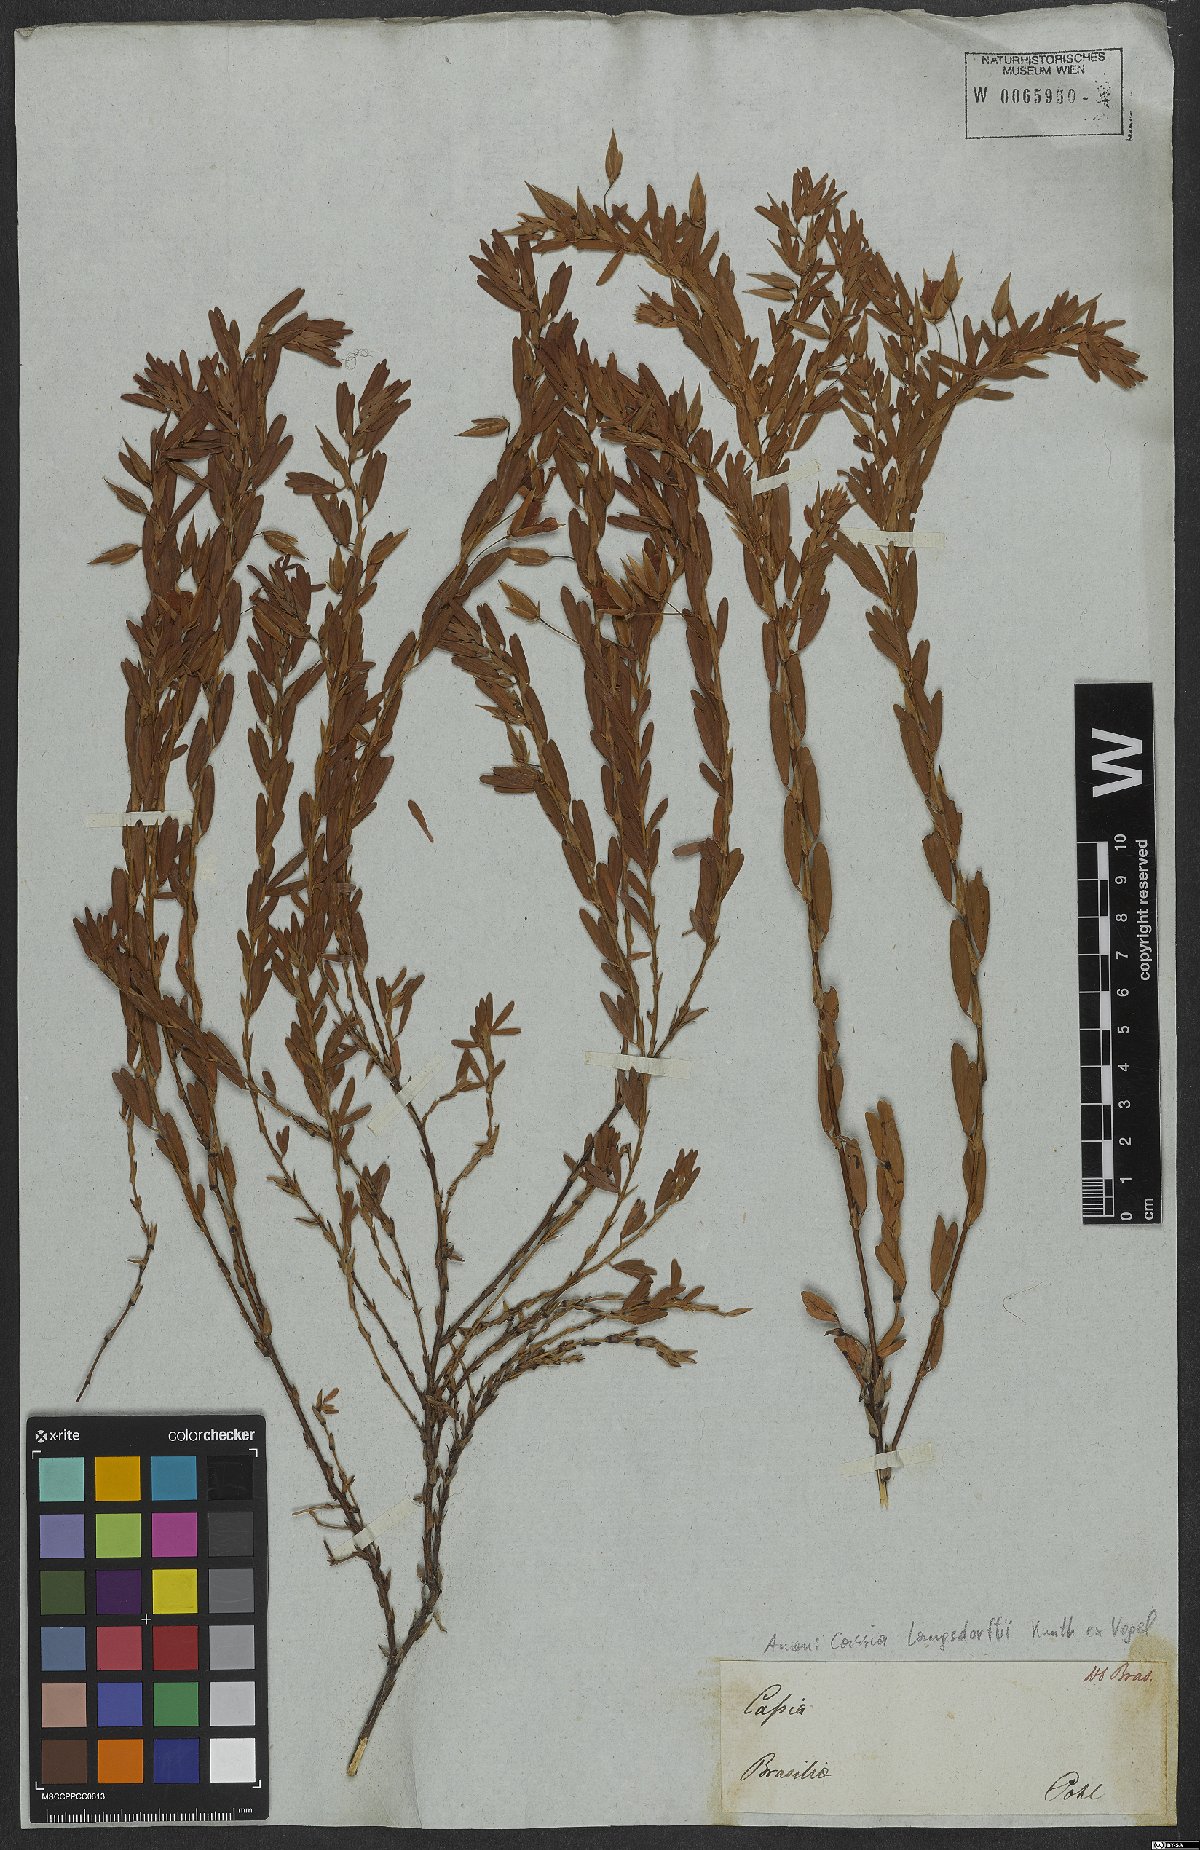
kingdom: Plantae
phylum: Tracheophyta
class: Magnoliopsida
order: Fabales
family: Fabaceae
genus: Chamaecrista
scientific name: Chamaecrista langsdorffii
